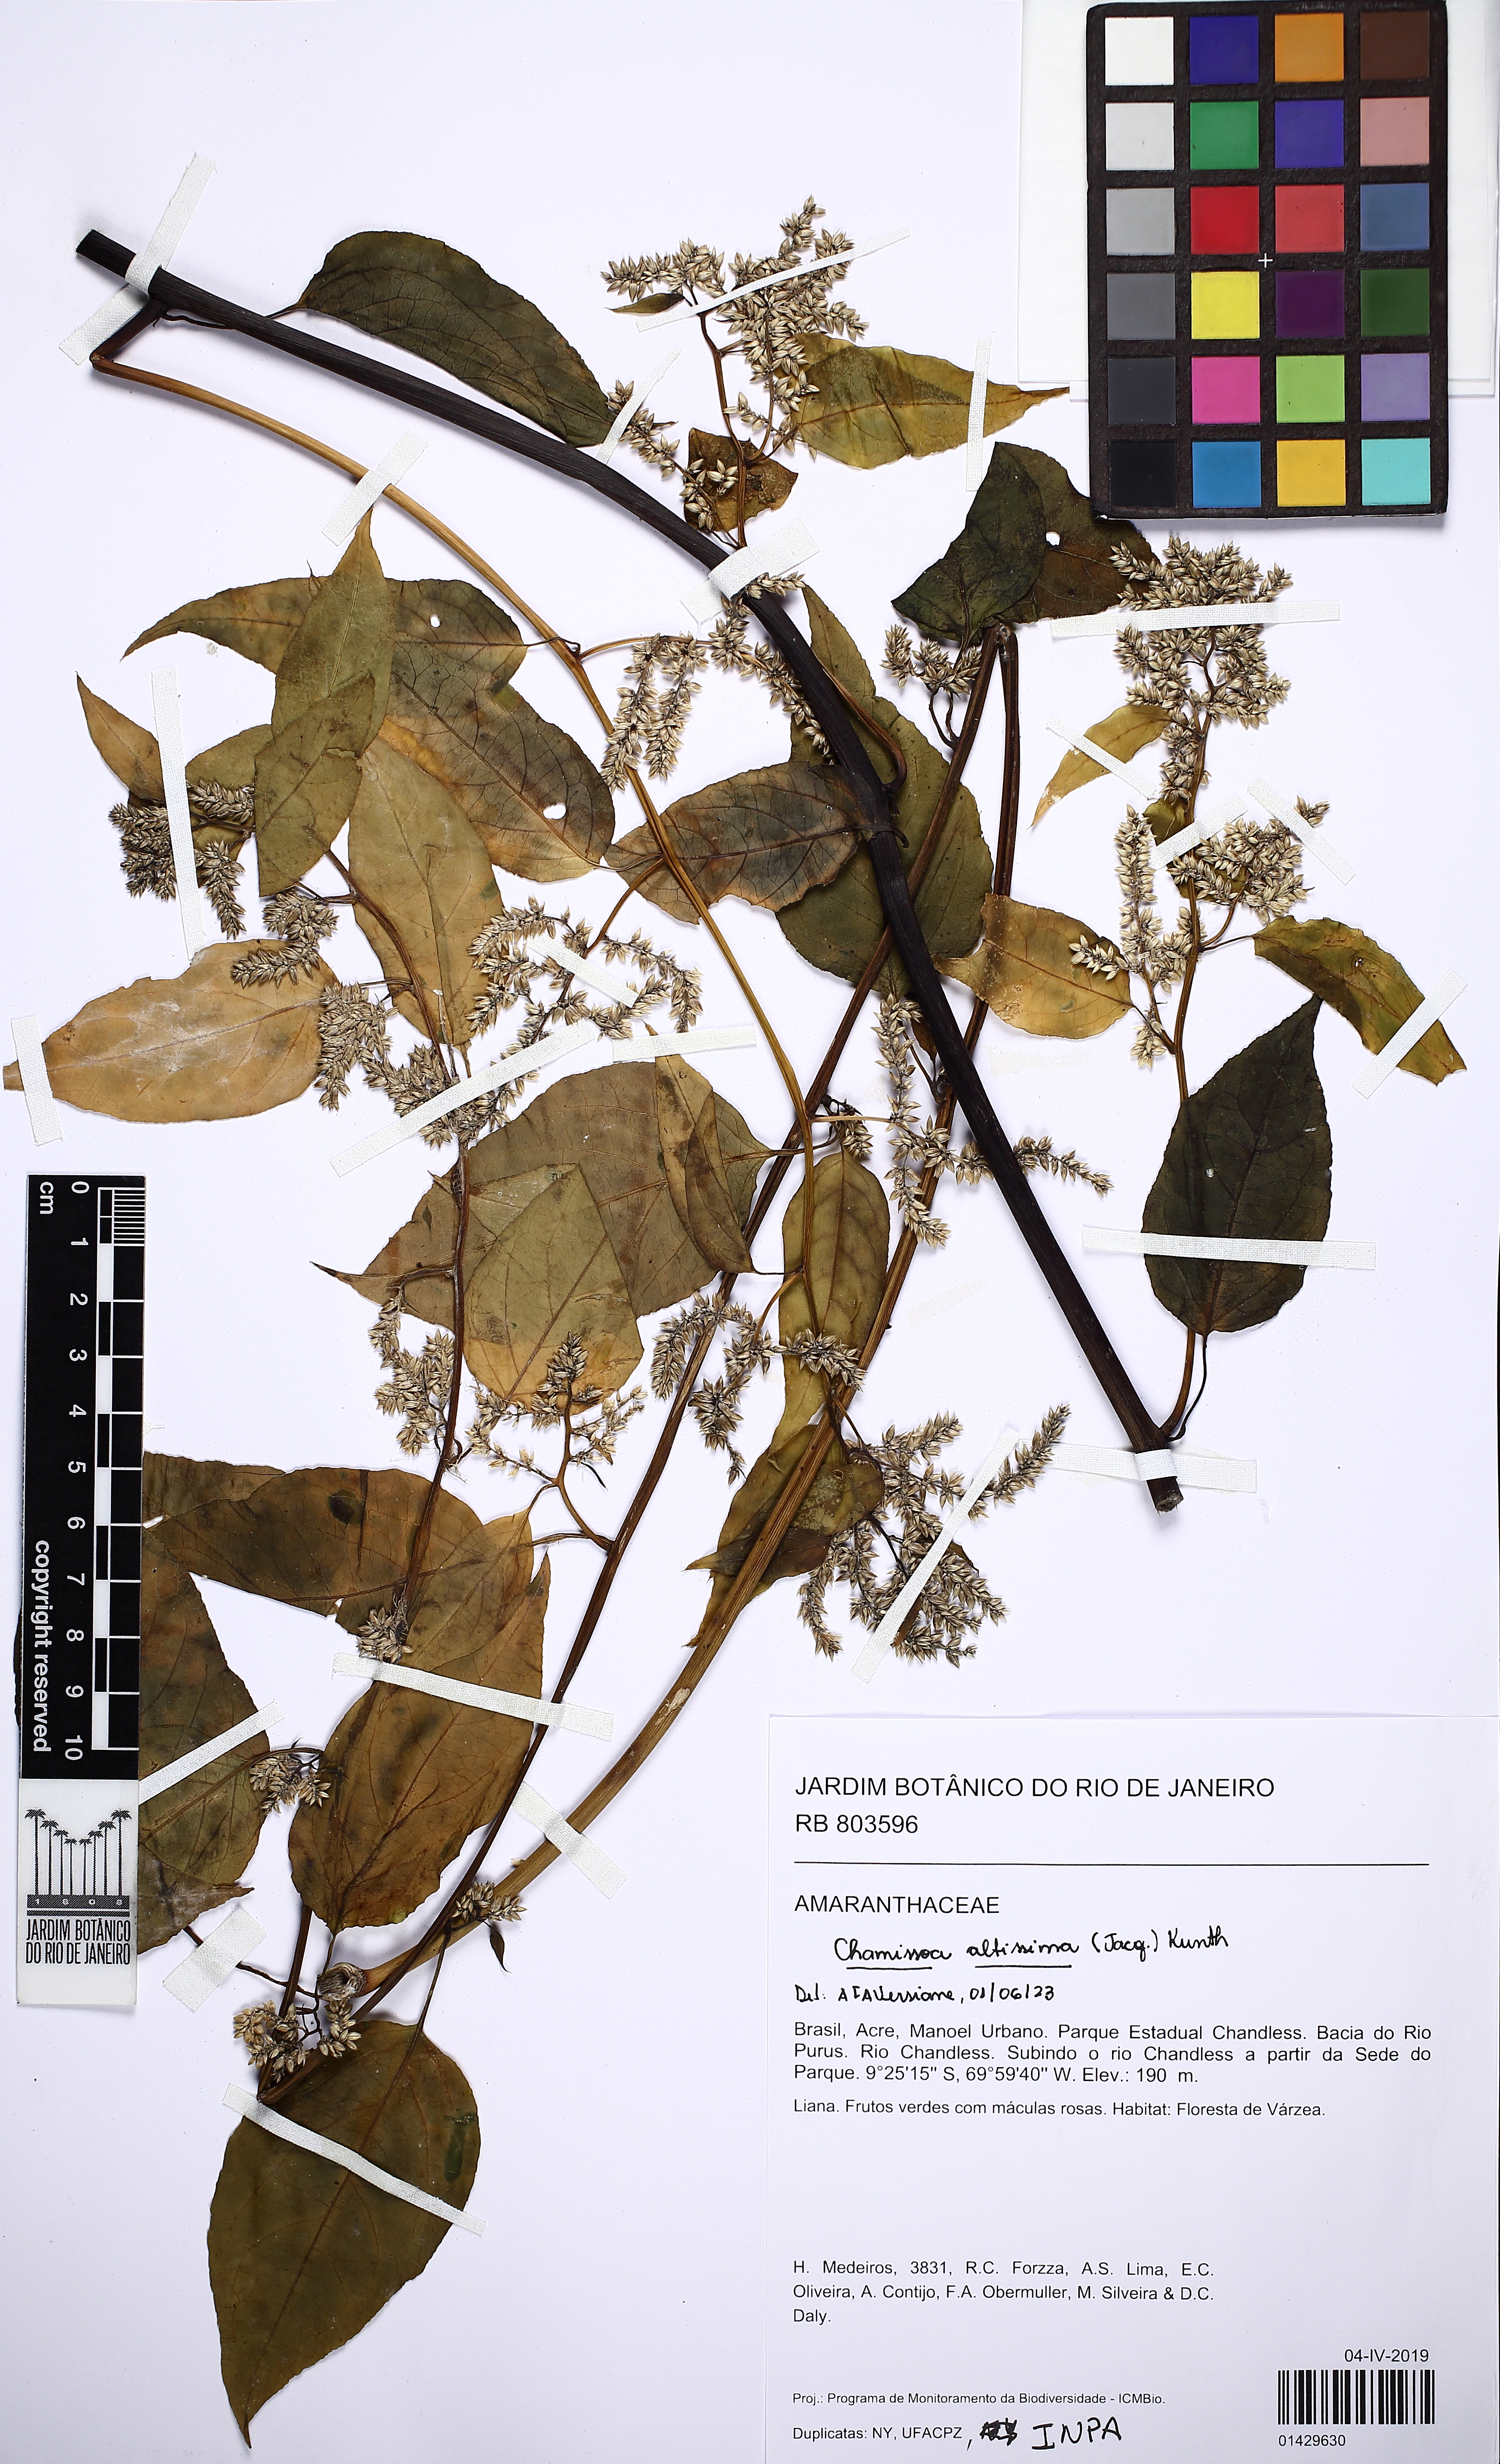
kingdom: Plantae
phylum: Tracheophyta
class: Magnoliopsida
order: Caryophyllales
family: Amaranthaceae
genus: Chamissoa
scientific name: Chamissoa altissima
